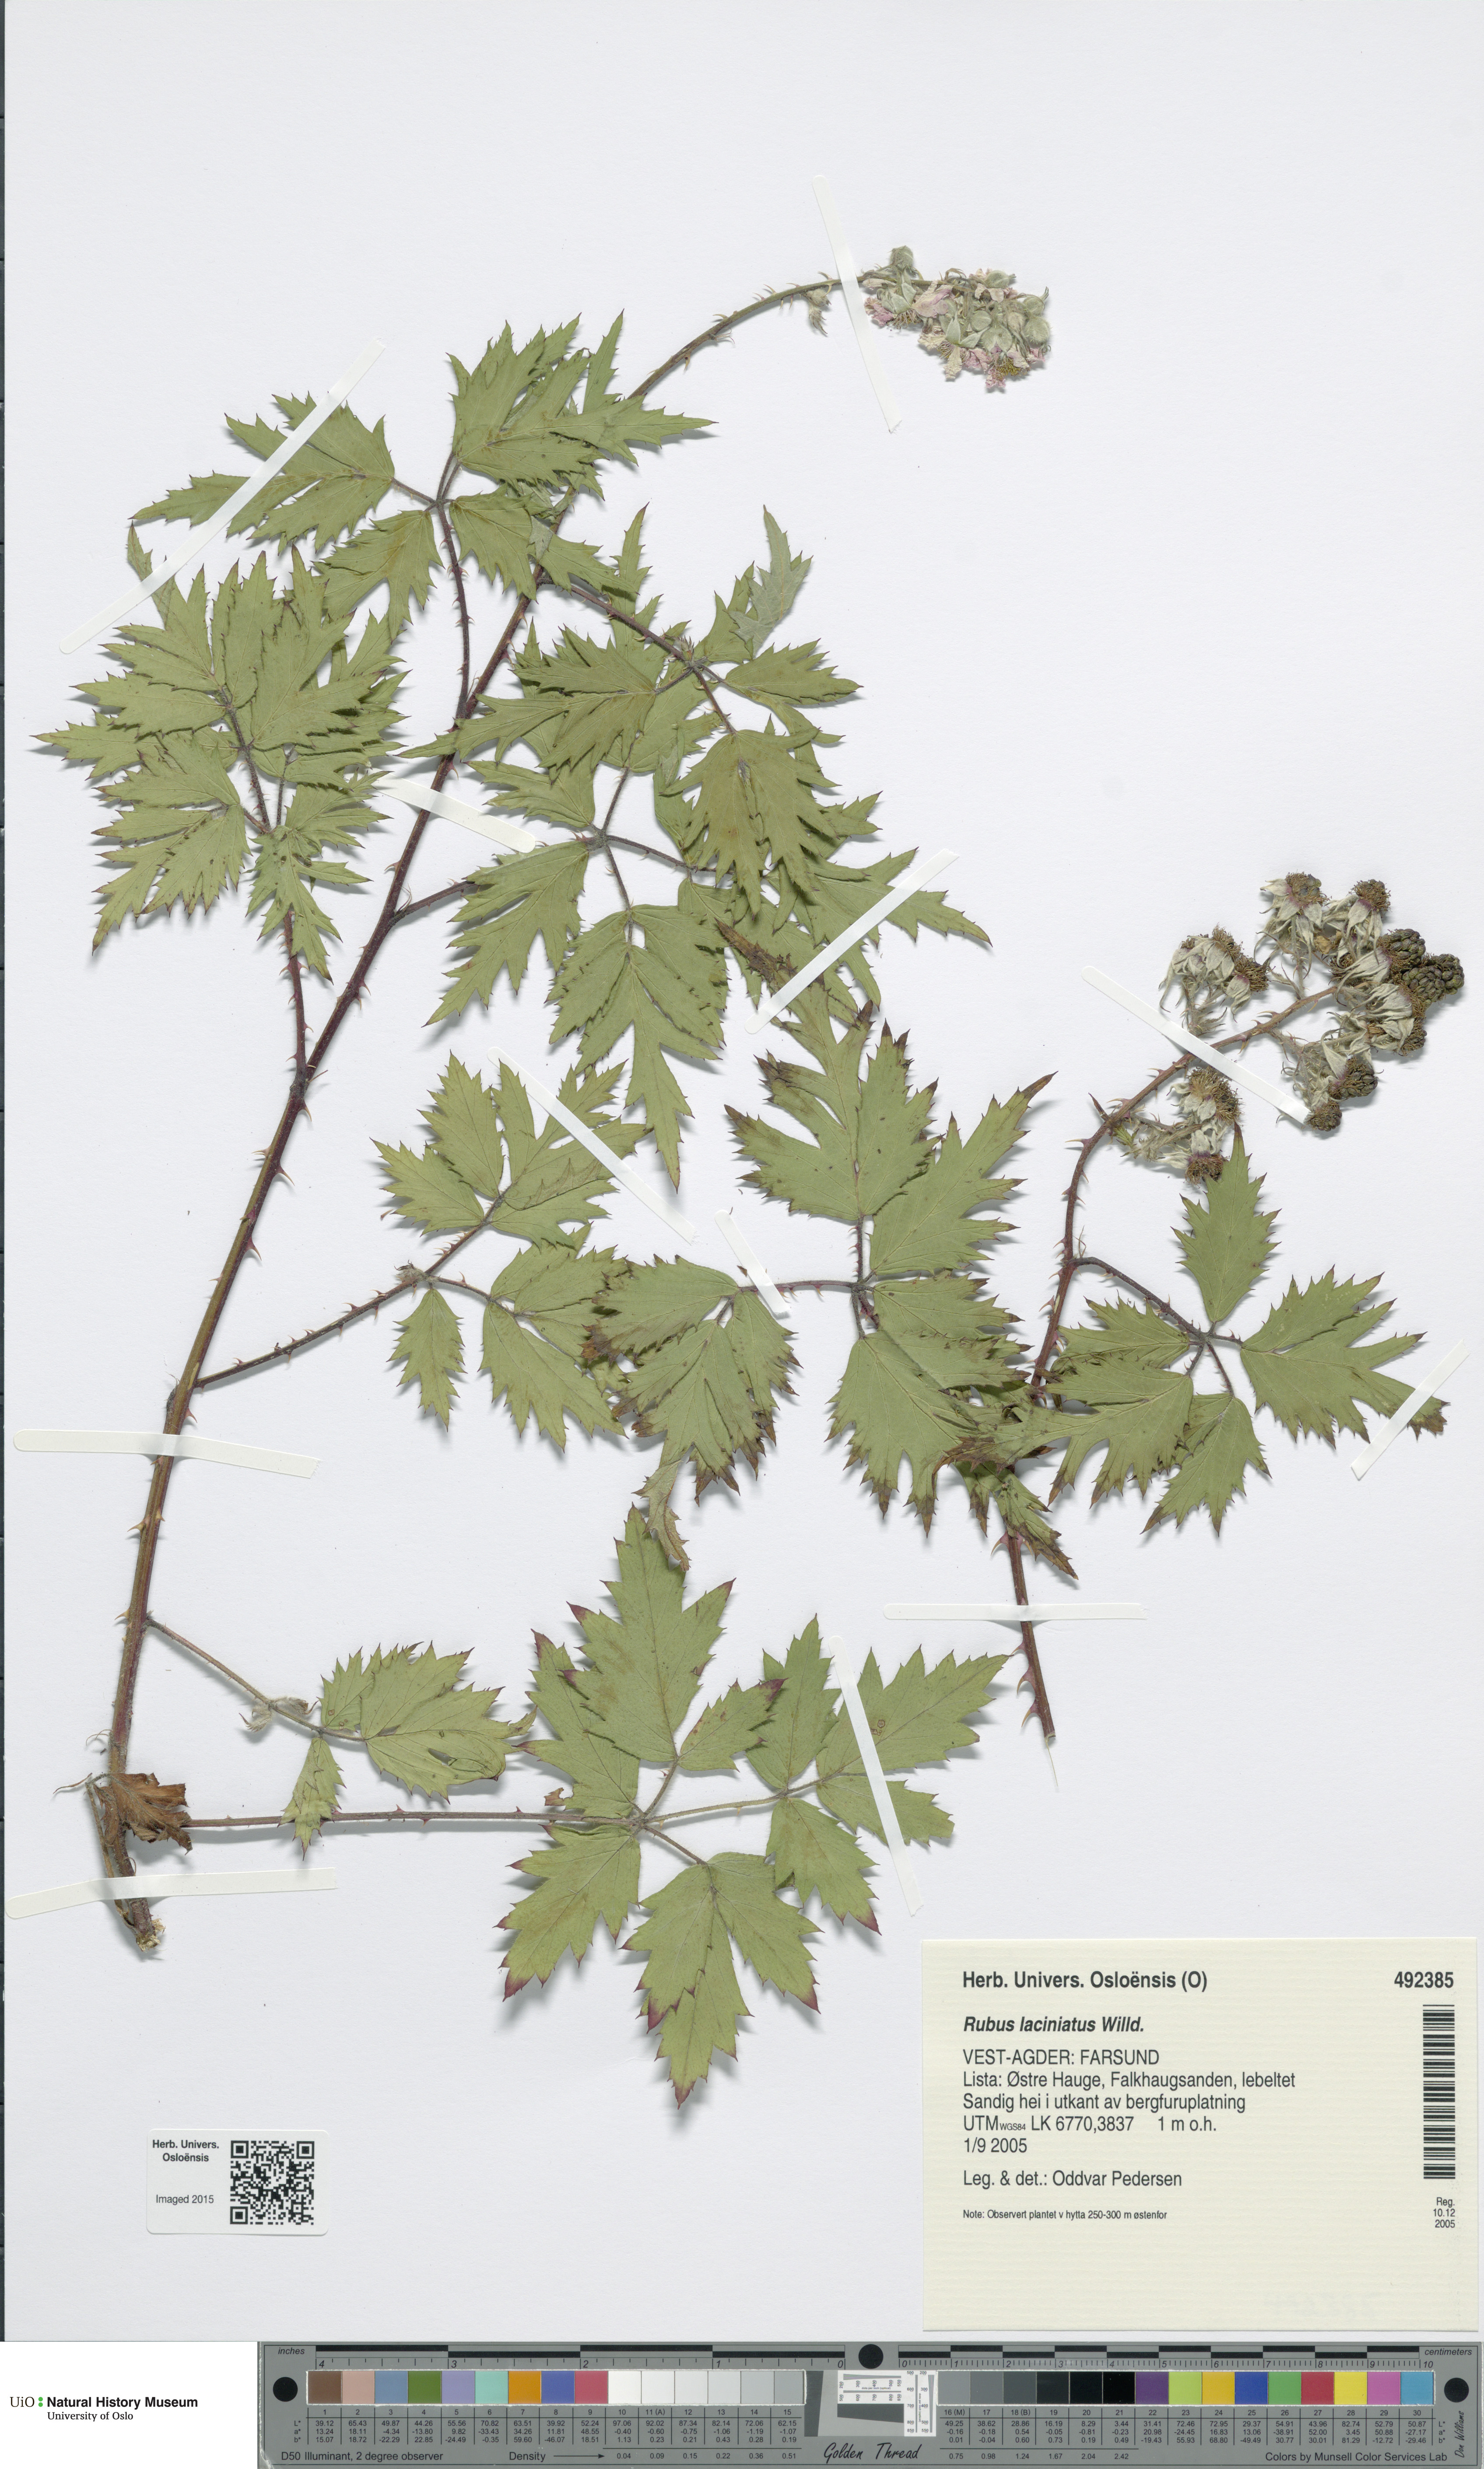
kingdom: Plantae
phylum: Tracheophyta
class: Magnoliopsida
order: Rosales
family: Rosaceae
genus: Rubus
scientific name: Rubus laciniatus
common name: Evergreen blackberry
